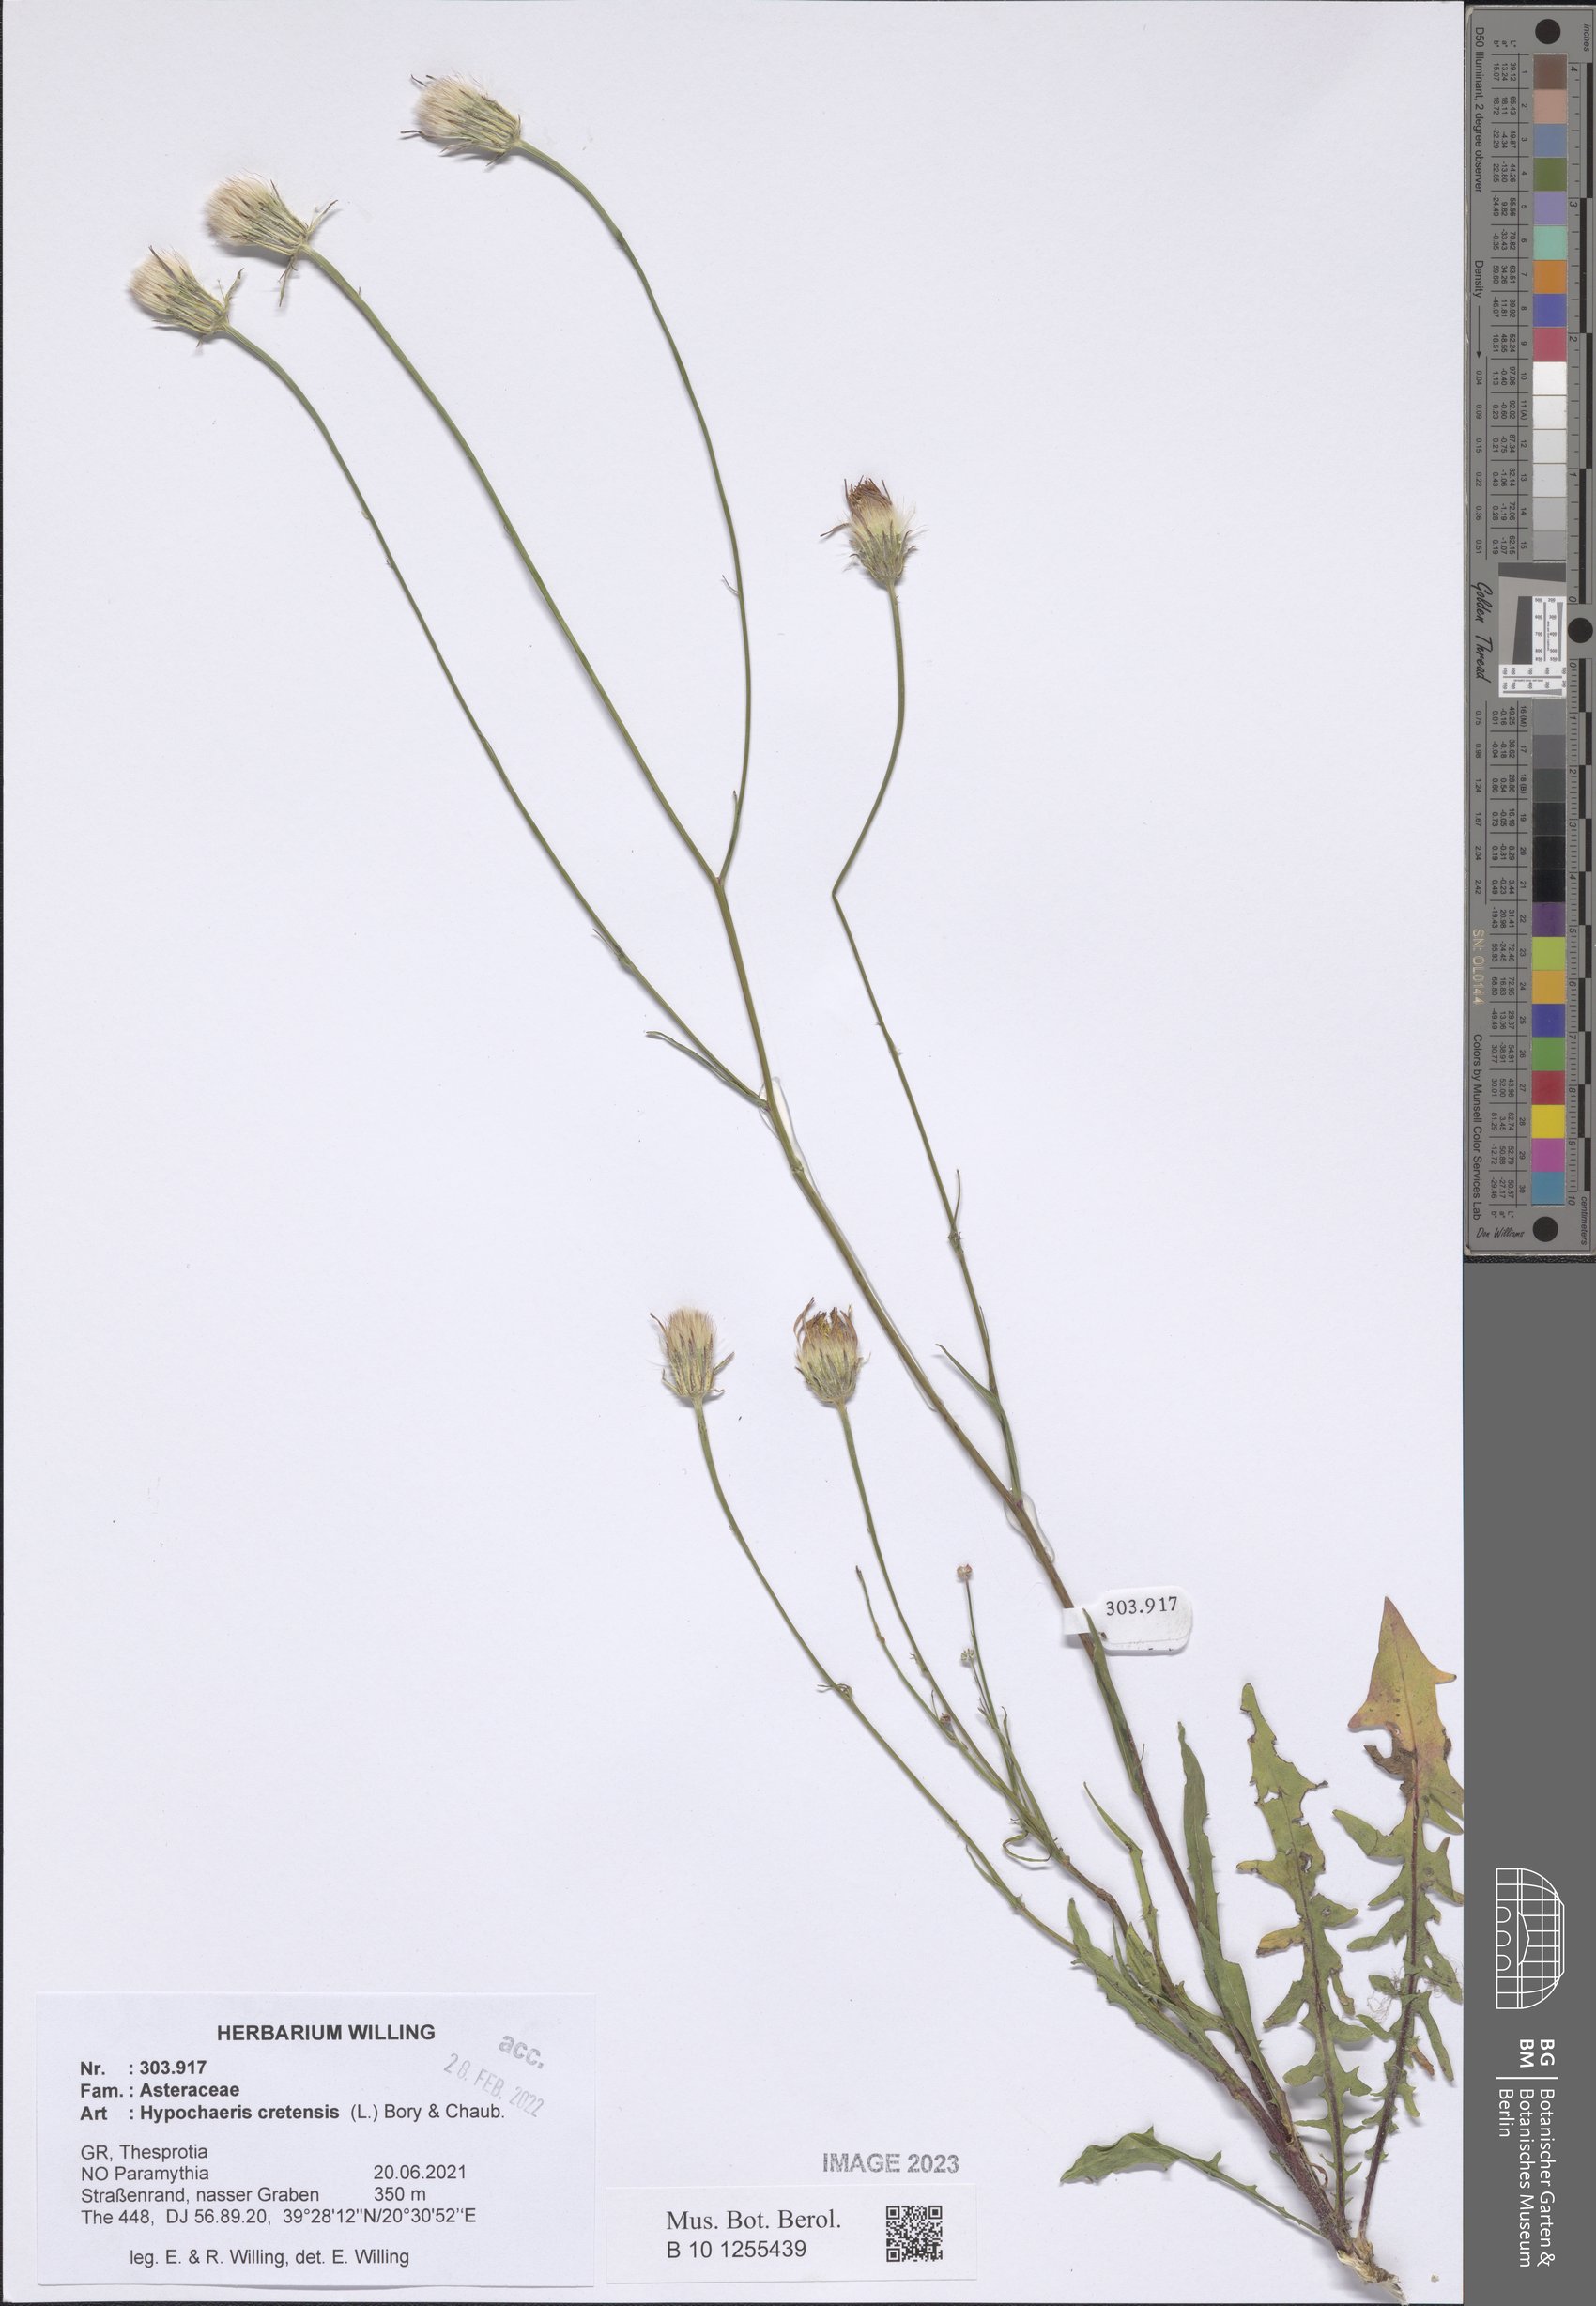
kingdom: Plantae
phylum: Tracheophyta
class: Magnoliopsida
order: Asterales
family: Asteraceae
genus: Hypochaeris
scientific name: Hypochaeris cretensis
